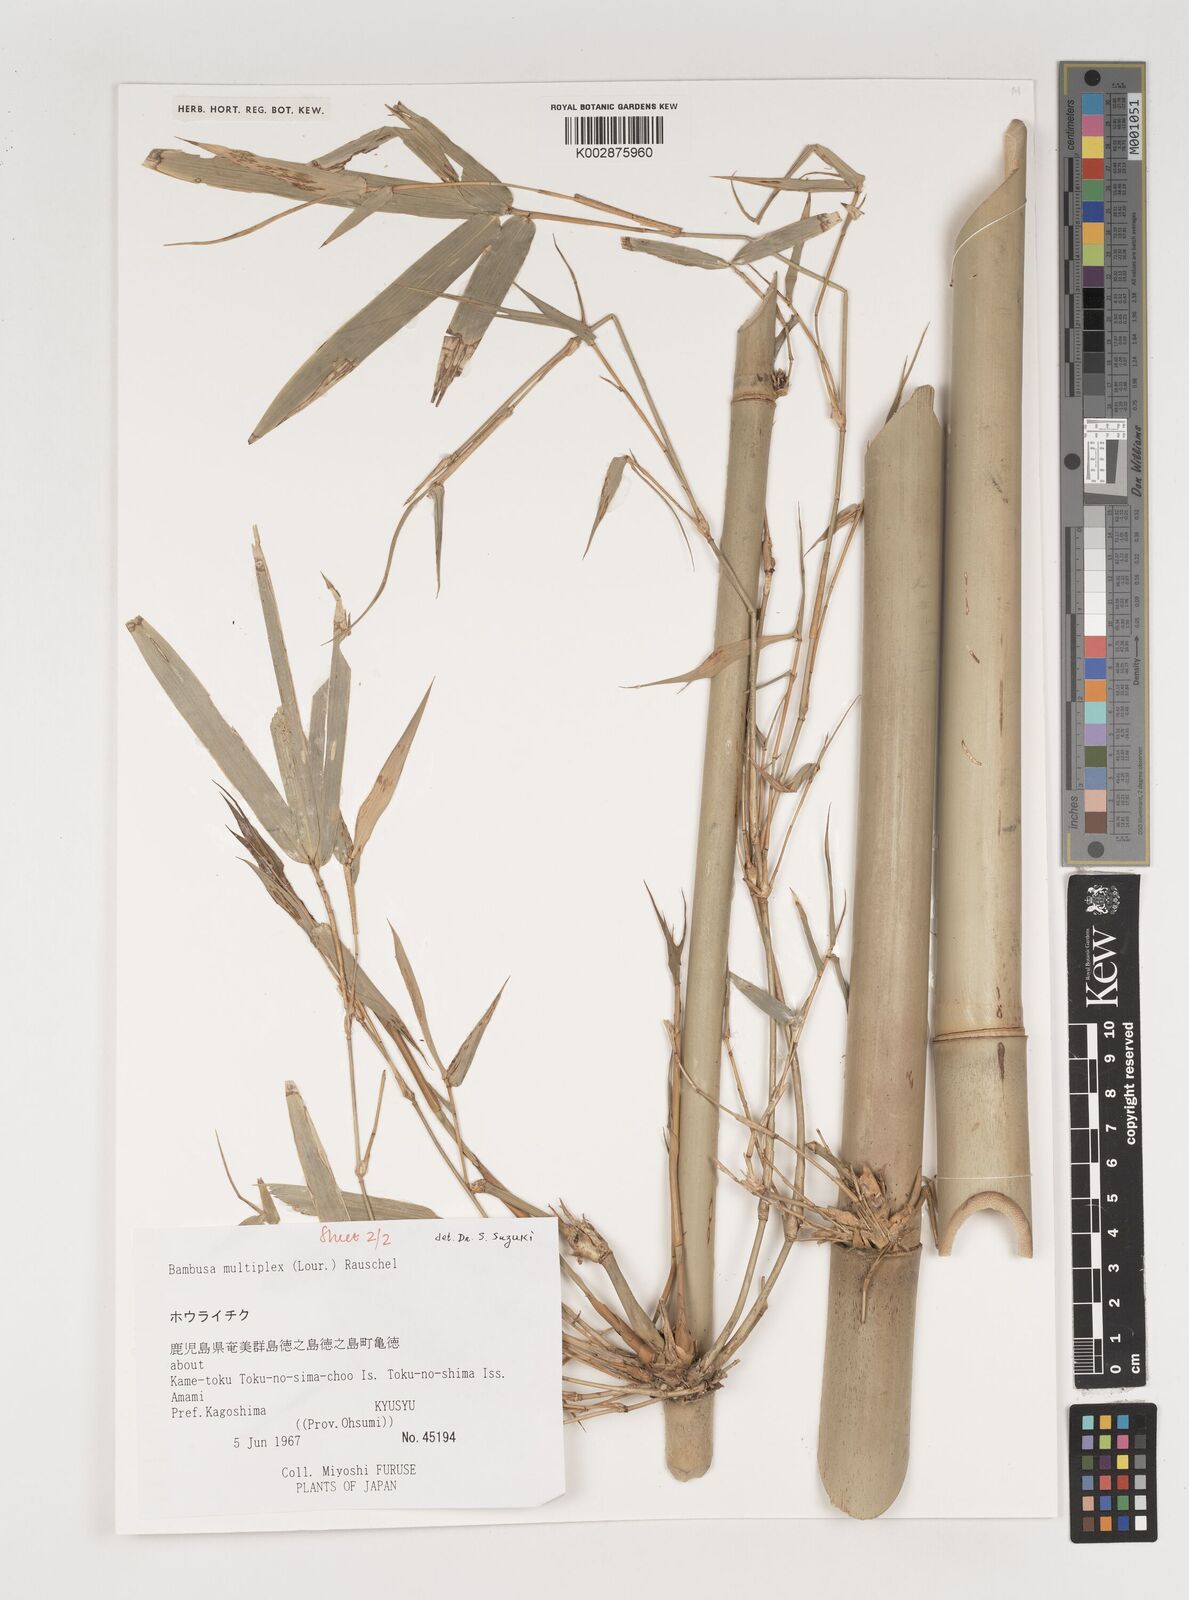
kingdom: Plantae
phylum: Tracheophyta
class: Liliopsida
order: Poales
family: Poaceae
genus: Bambusa
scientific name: Bambusa multiplex
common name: Hedge bamboo
